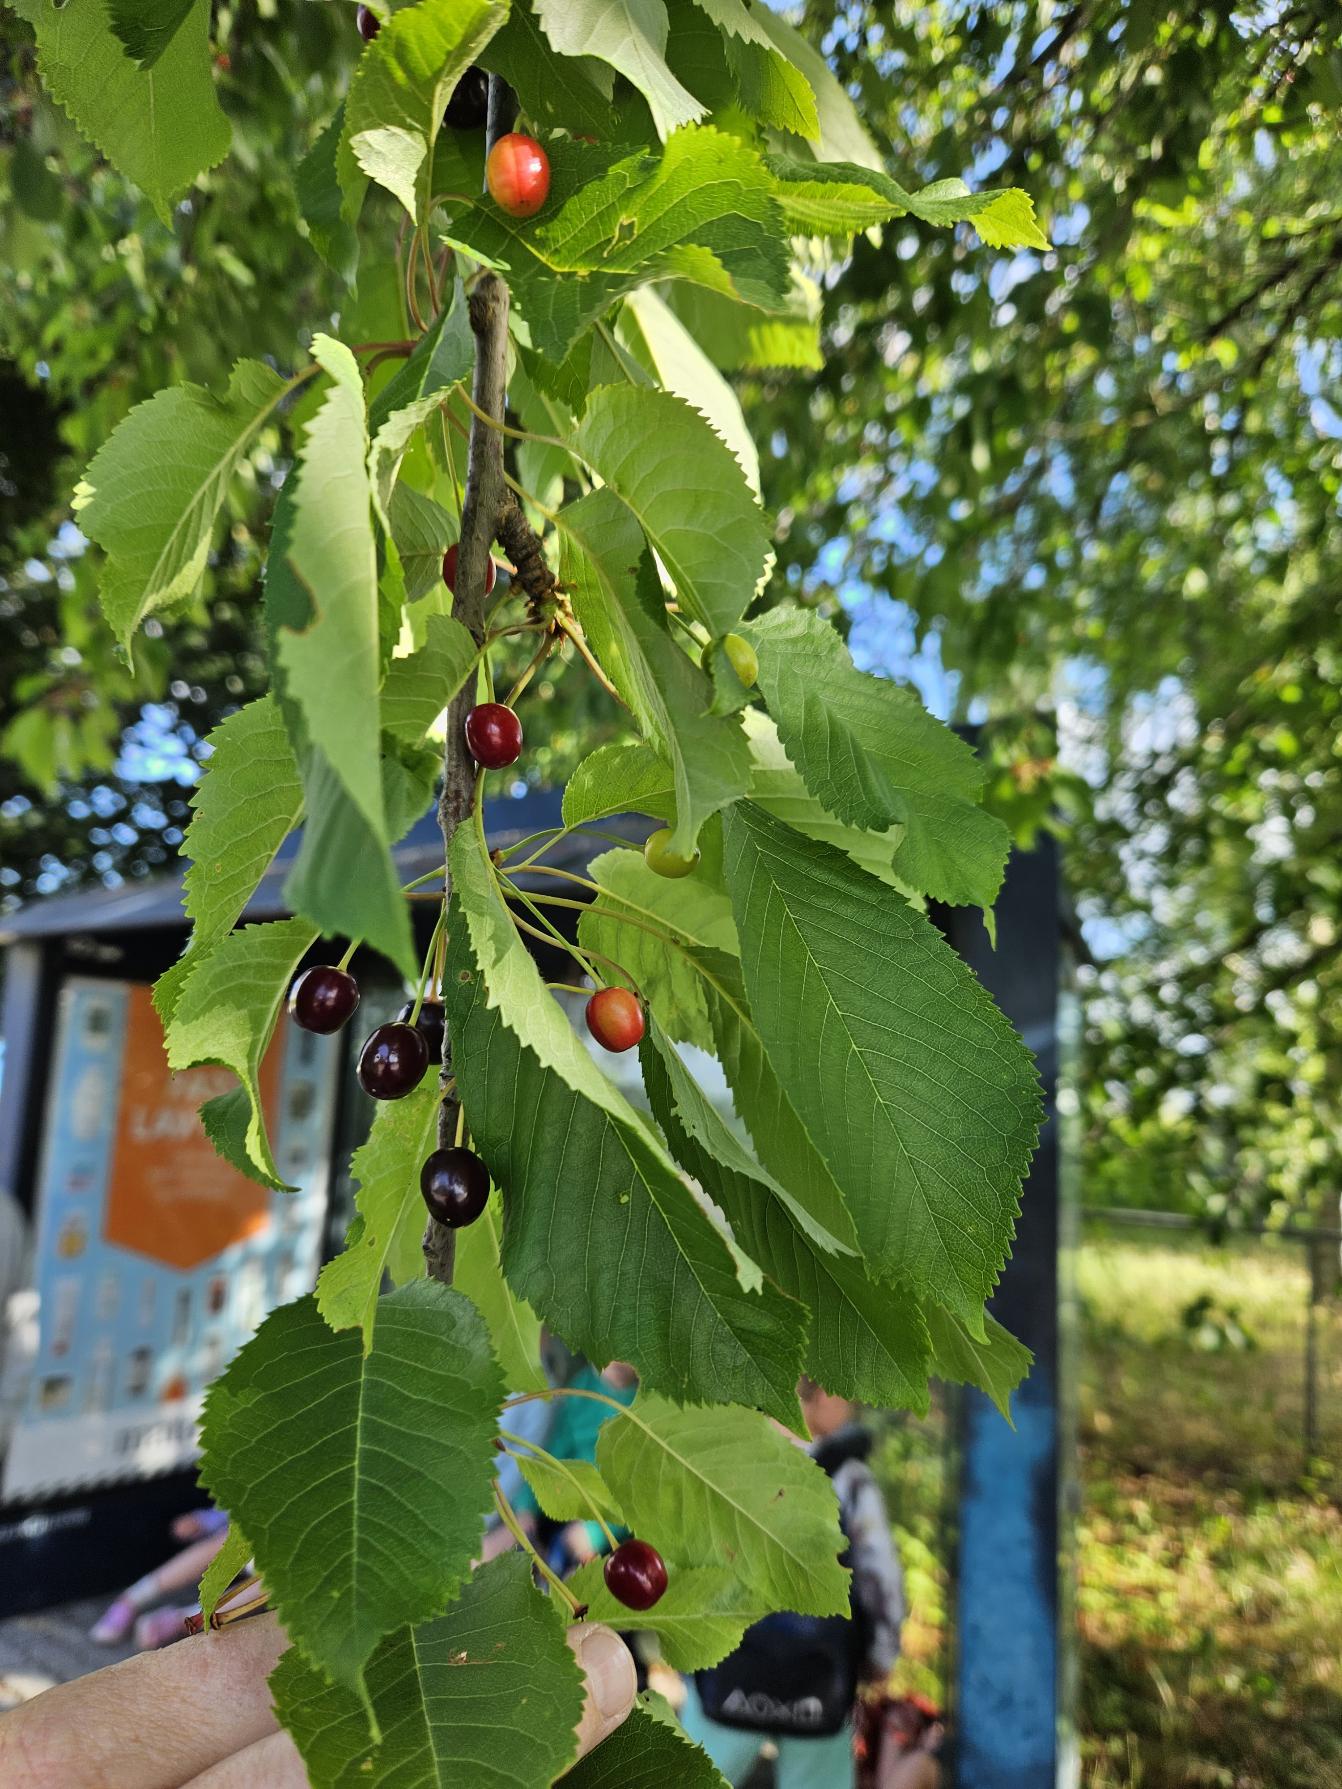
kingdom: Plantae
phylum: Tracheophyta
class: Magnoliopsida
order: Rosales
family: Rosaceae
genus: Prunus
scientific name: Prunus avium
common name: Fugle-kirsebær
